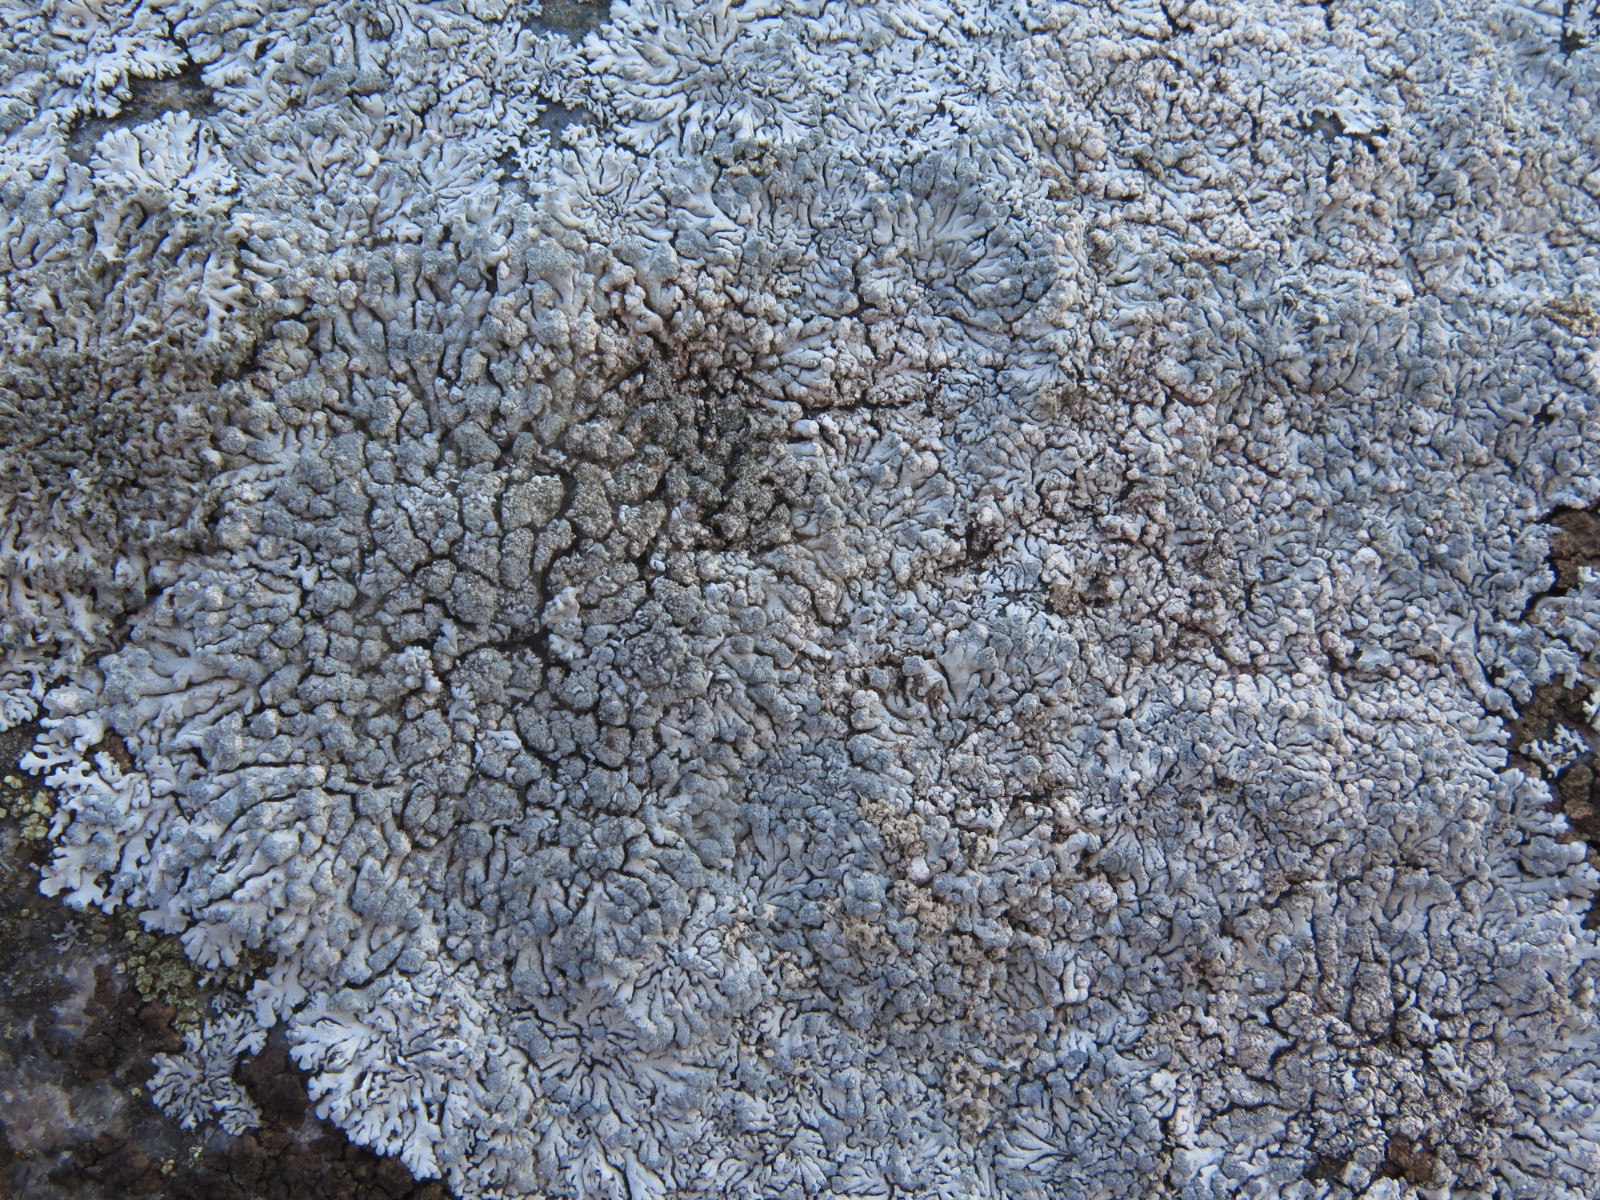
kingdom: Fungi
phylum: Ascomycota
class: Lecanoromycetes
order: Caliciales
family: Physciaceae
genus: Physcia
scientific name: Physcia caesia
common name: blågrå rosetlav
